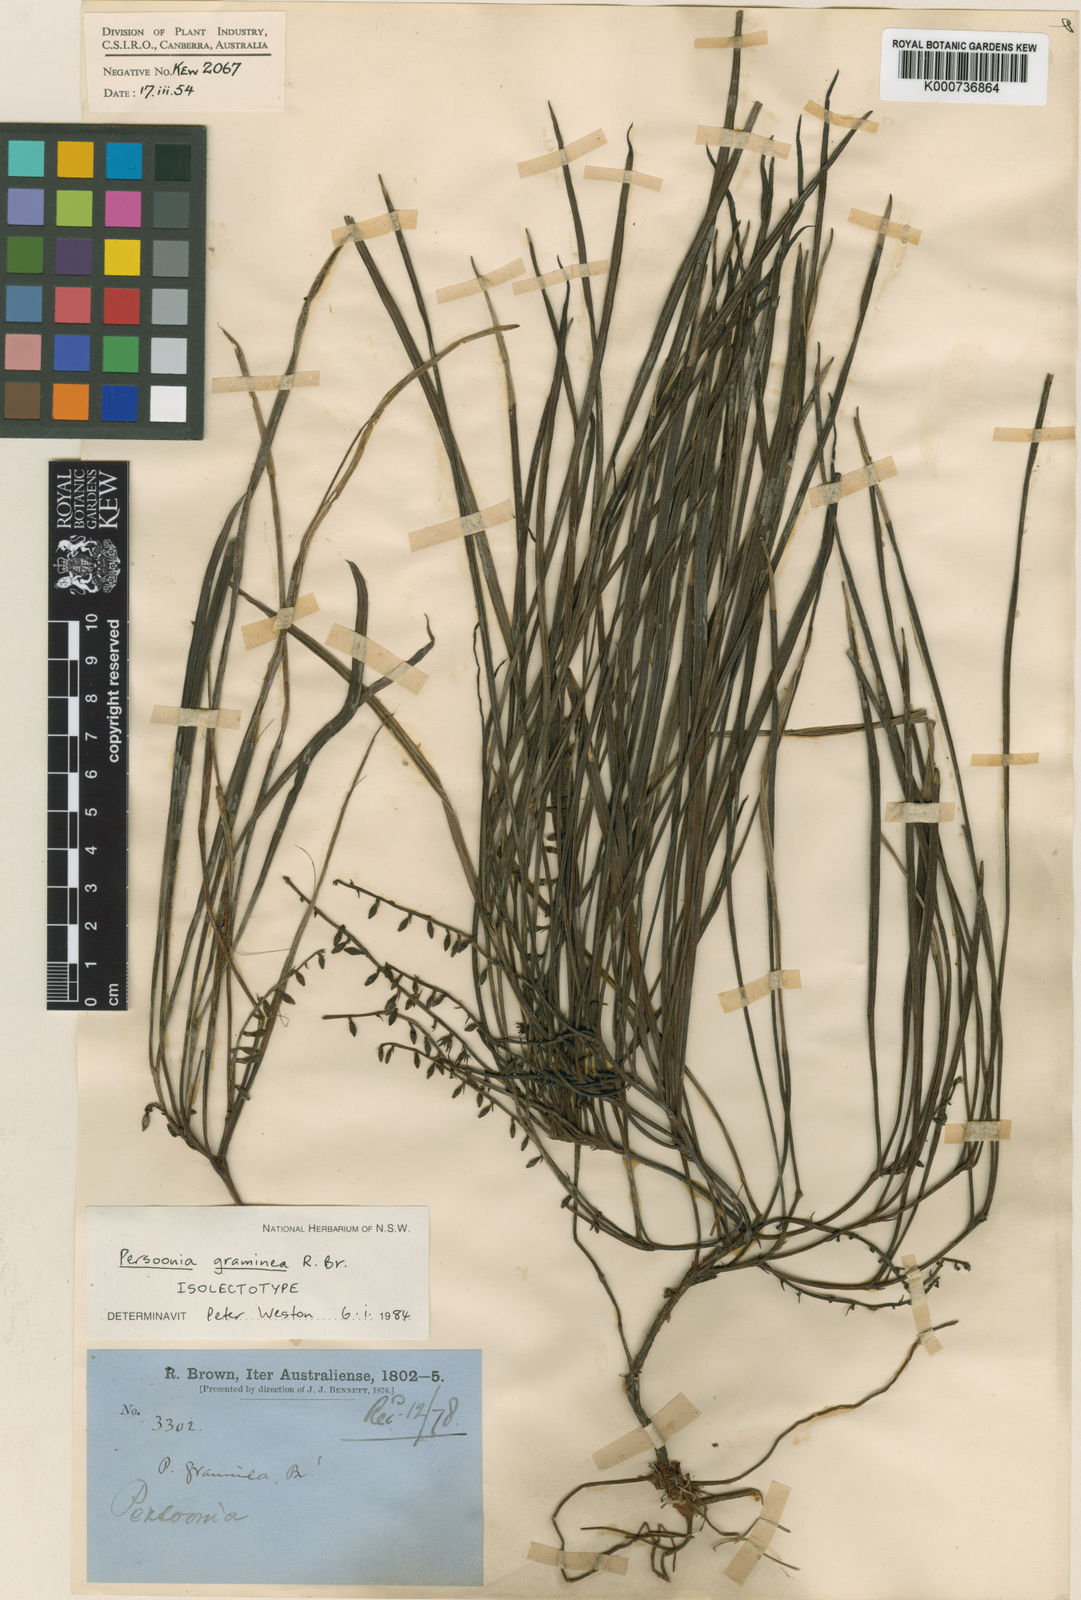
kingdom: Plantae
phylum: Tracheophyta
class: Magnoliopsida
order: Proteales
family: Proteaceae
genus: Persoonia
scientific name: Persoonia graminea
